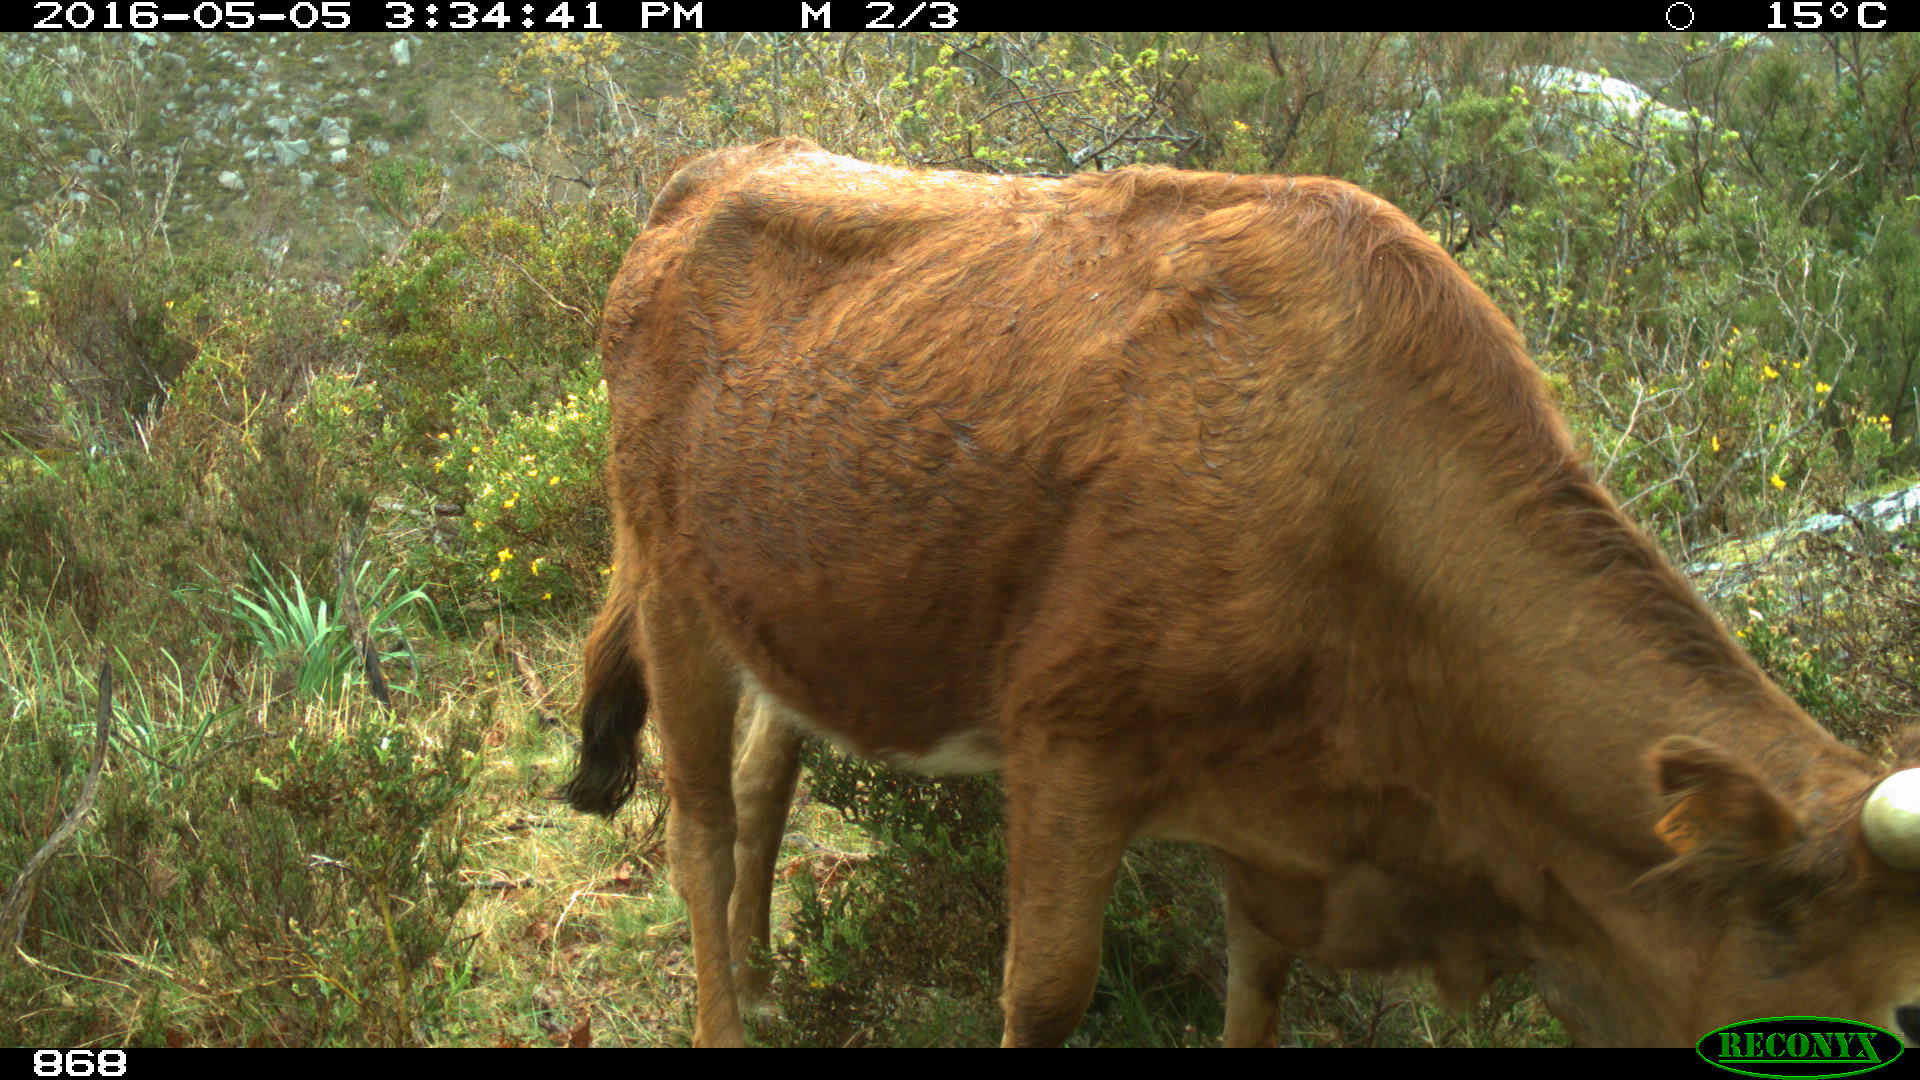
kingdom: Animalia
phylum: Chordata
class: Mammalia
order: Artiodactyla
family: Bovidae
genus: Bos
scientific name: Bos taurus
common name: Domesticated cattle
